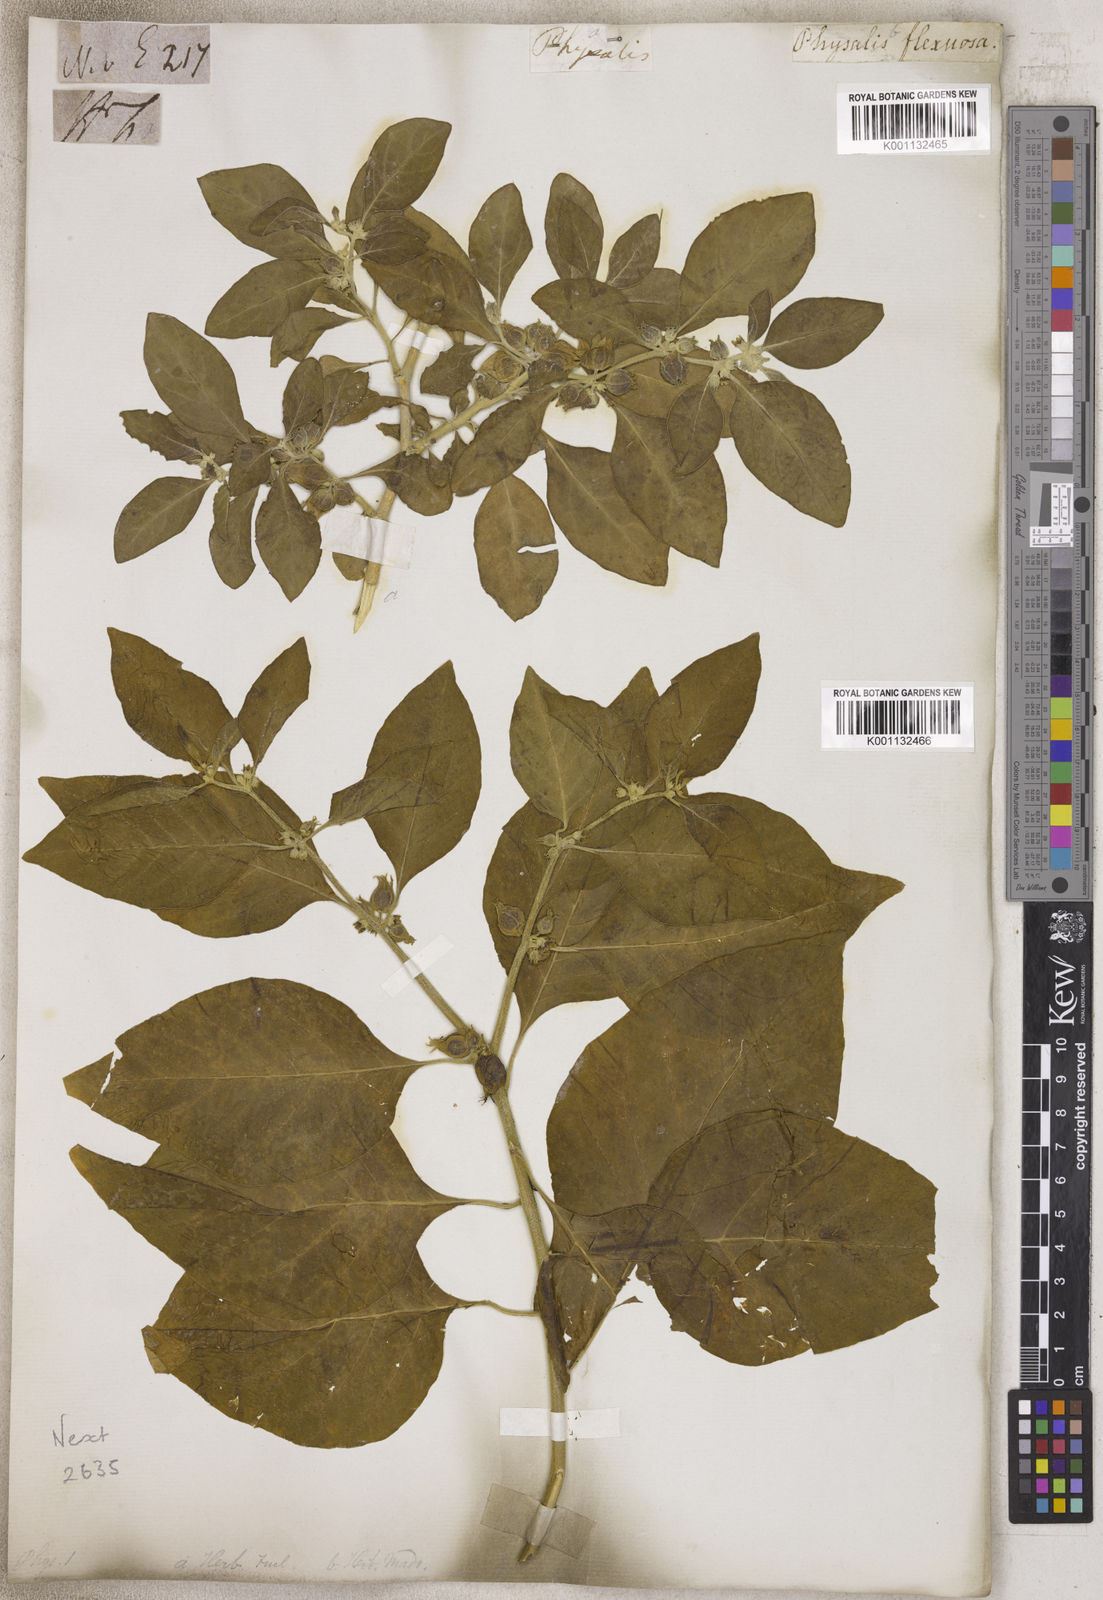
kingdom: Plantae
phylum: Tracheophyta
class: Magnoliopsida
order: Solanales
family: Solanaceae
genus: Physalis
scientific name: Physalis
